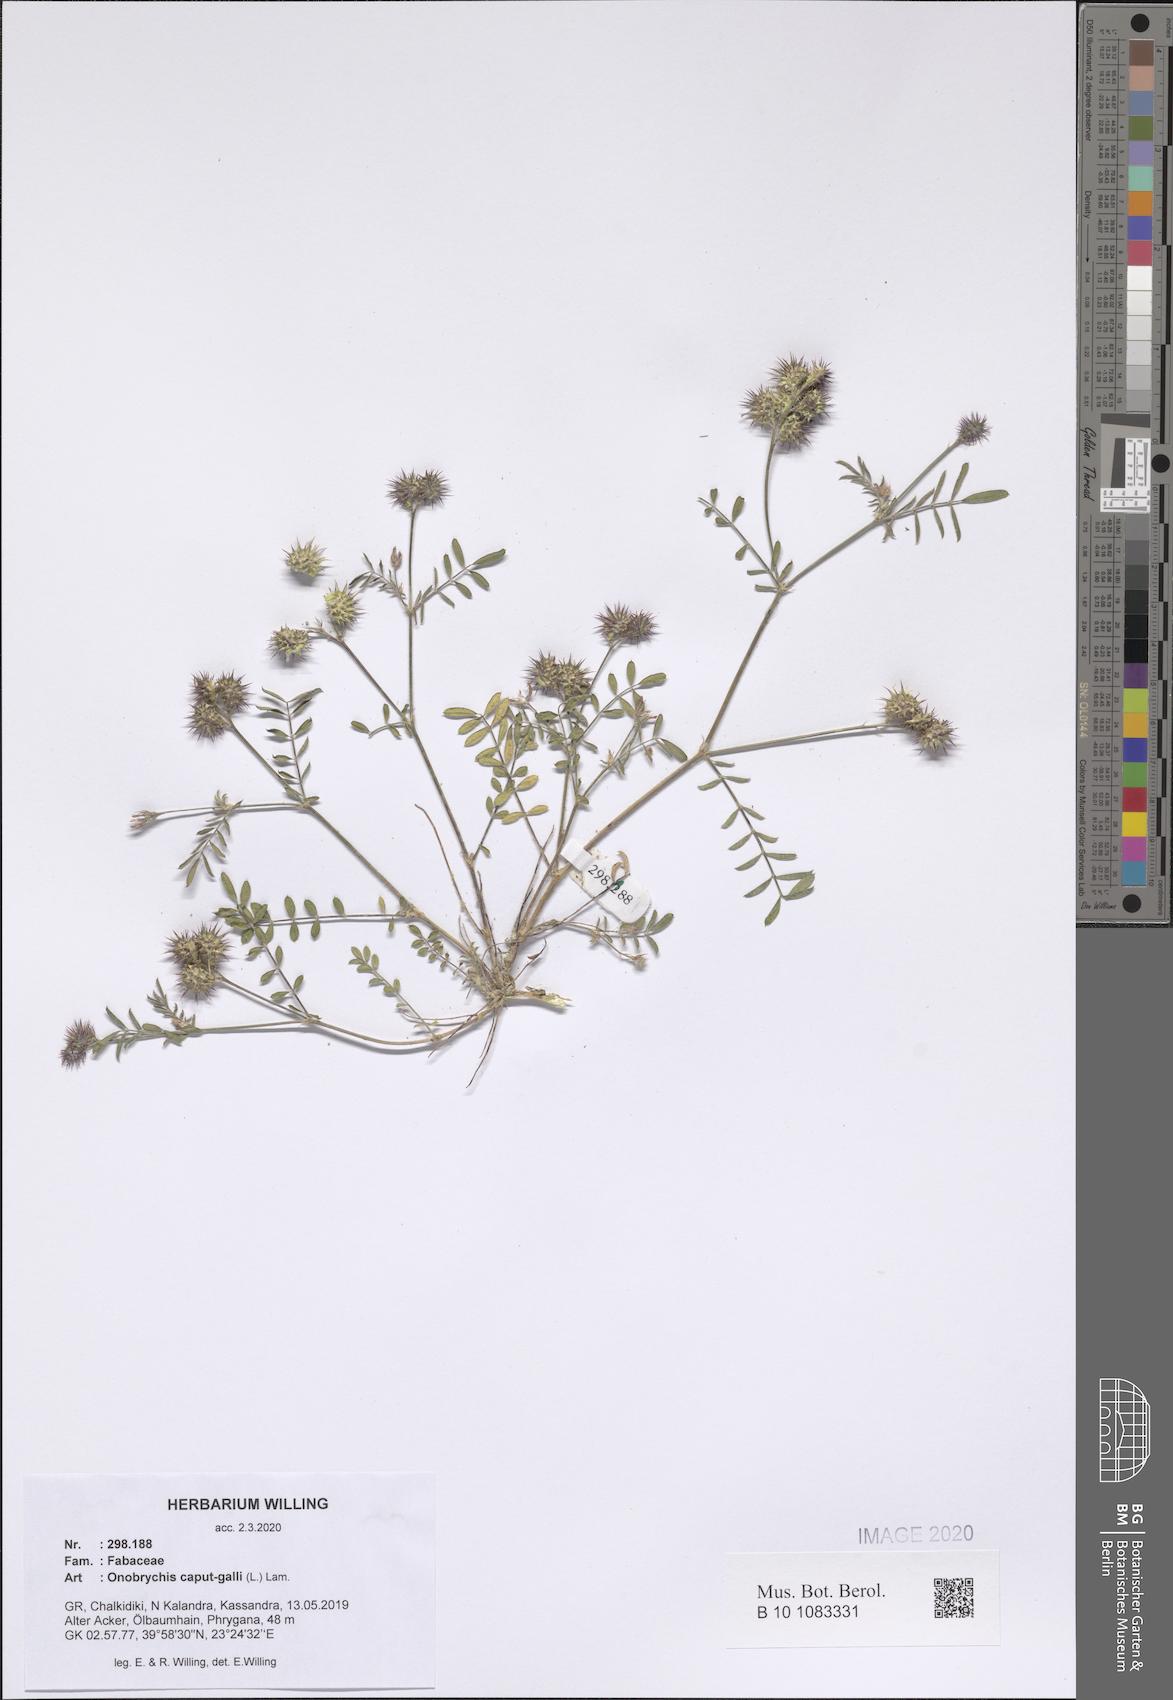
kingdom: Plantae
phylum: Tracheophyta
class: Magnoliopsida
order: Fabales
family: Fabaceae
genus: Onobrychis
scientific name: Onobrychis caput-galli
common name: Cockscomb sainfoin
